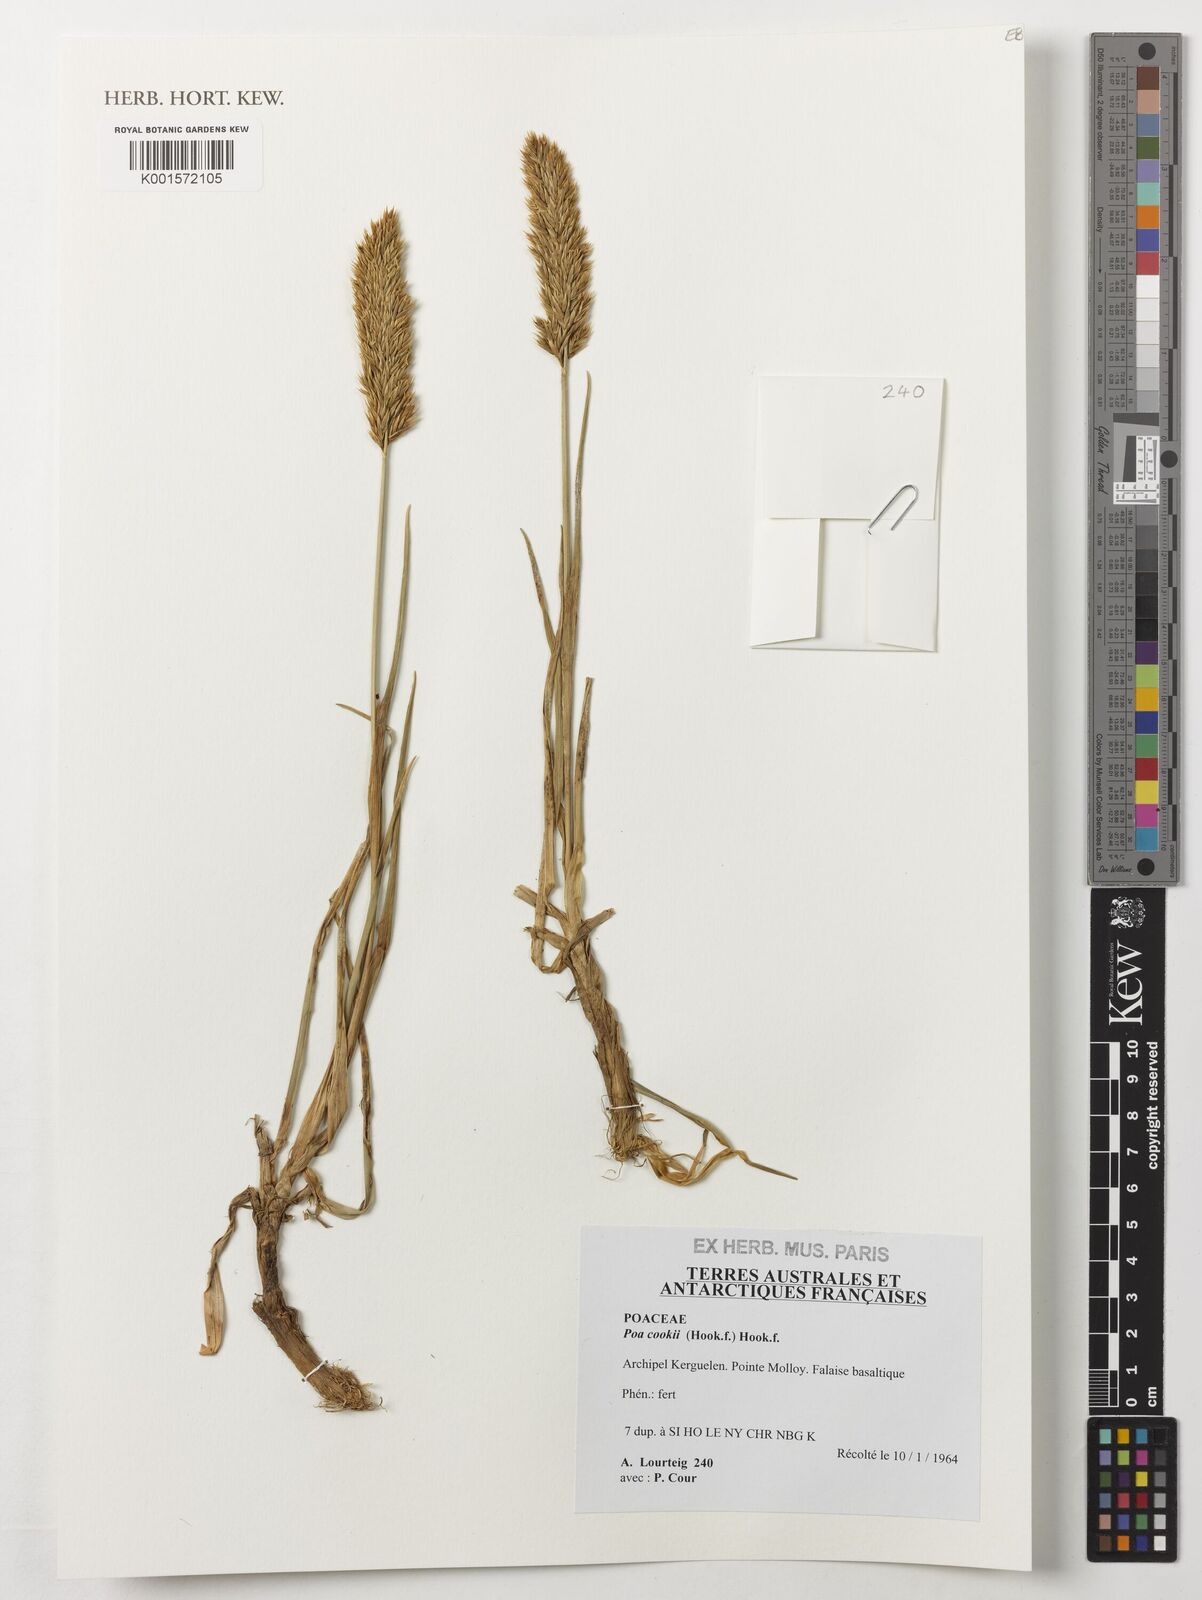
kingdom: Plantae
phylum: Tracheophyta
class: Liliopsida
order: Poales
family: Poaceae
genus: Poa
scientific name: Poa cookii
